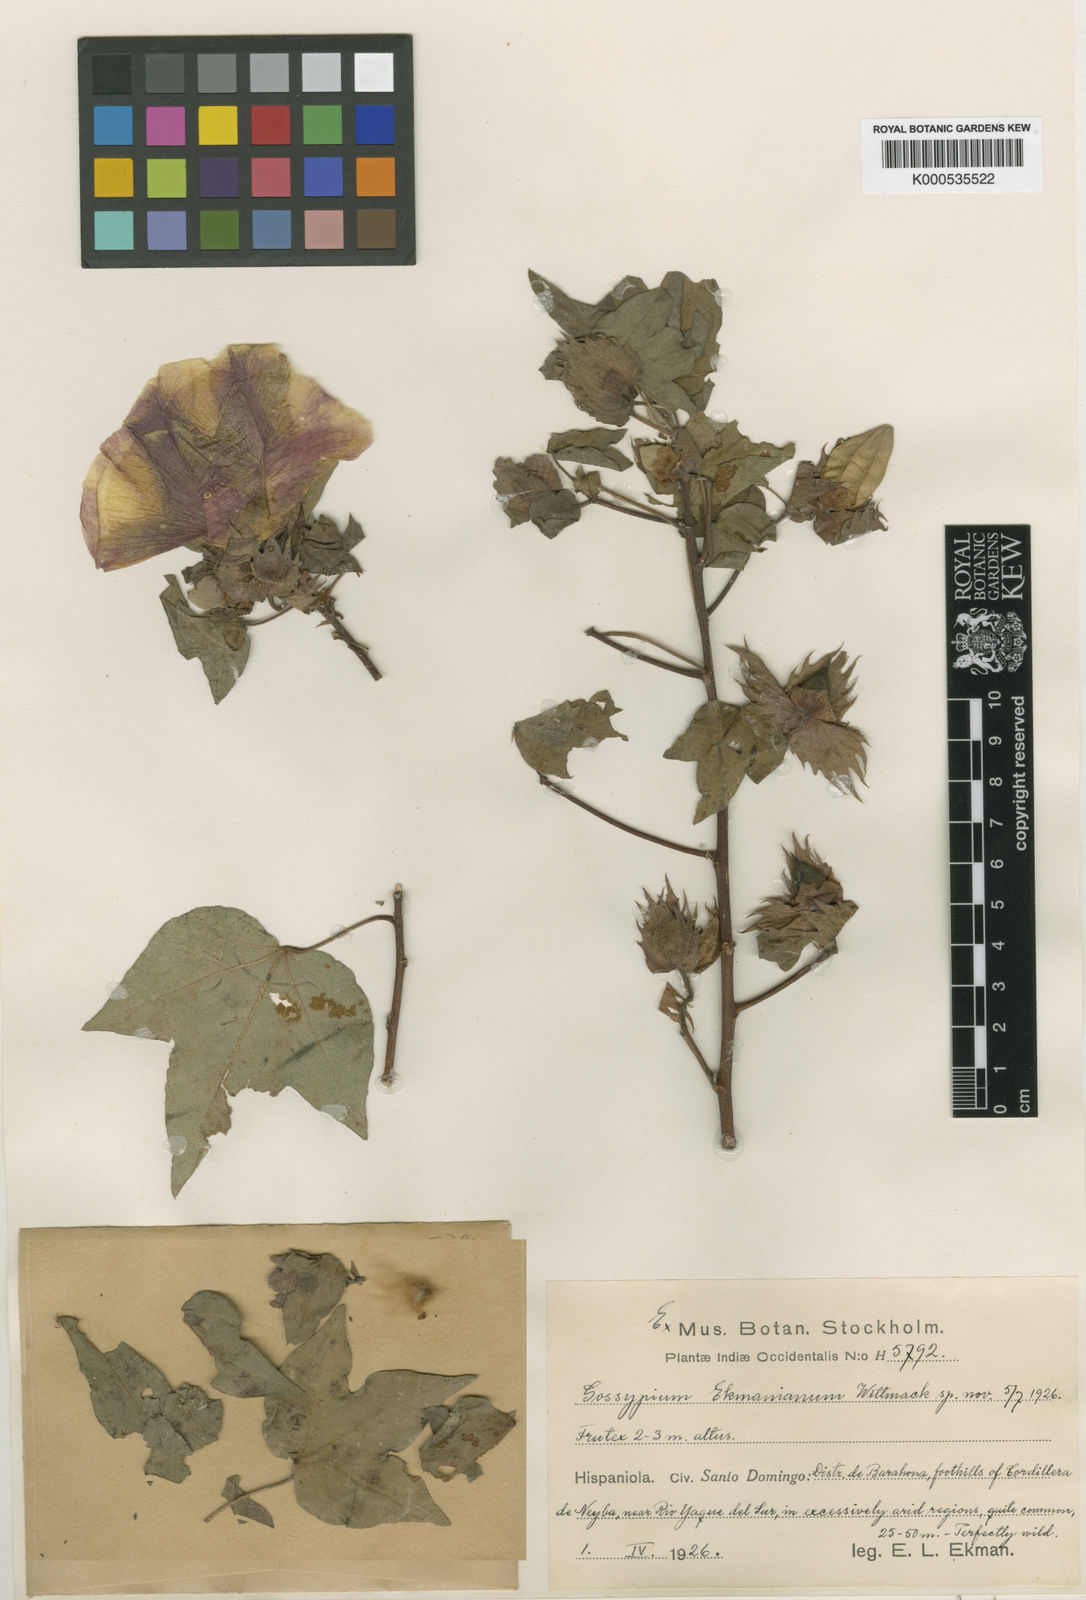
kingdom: Plantae
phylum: Tracheophyta
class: Magnoliopsida
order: Malvales
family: Malvaceae
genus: Gossypium
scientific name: Gossypium hirsutum
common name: Cotton
